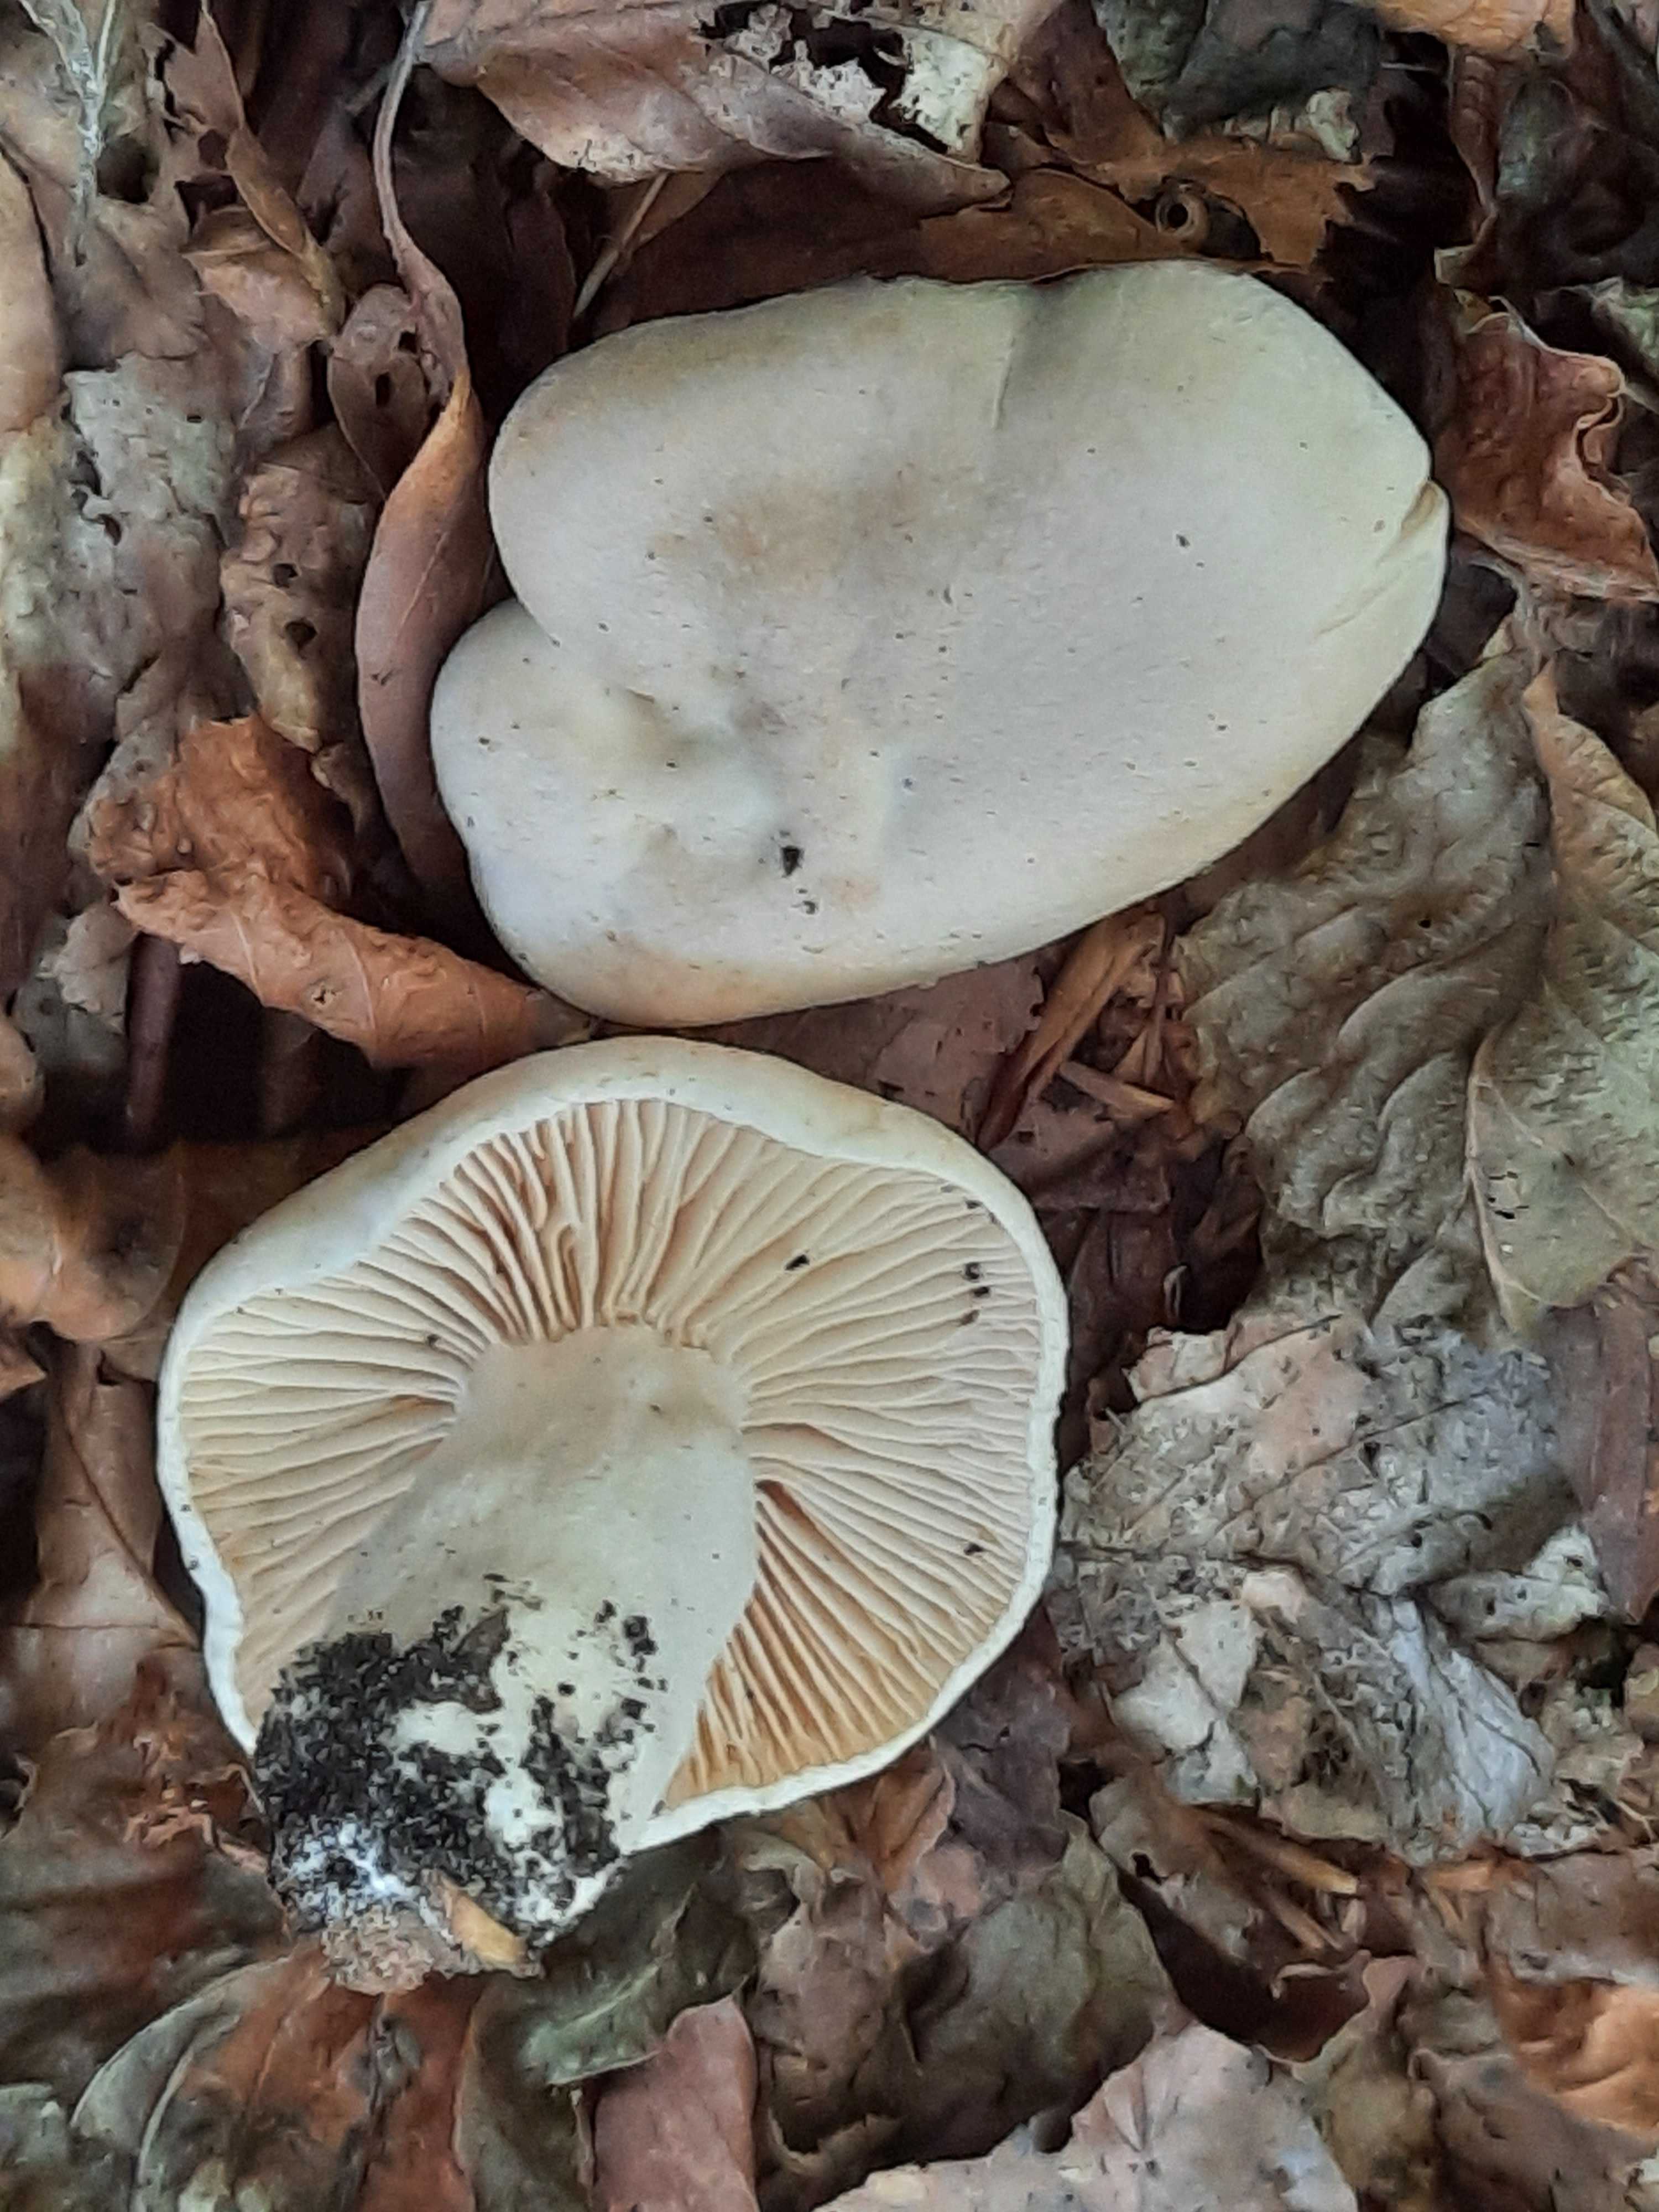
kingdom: Fungi
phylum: Basidiomycota
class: Agaricomycetes
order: Agaricales
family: Hygrophoraceae
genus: Hygrophorus
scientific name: Hygrophorus penarius
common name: spiselig sneglehat
